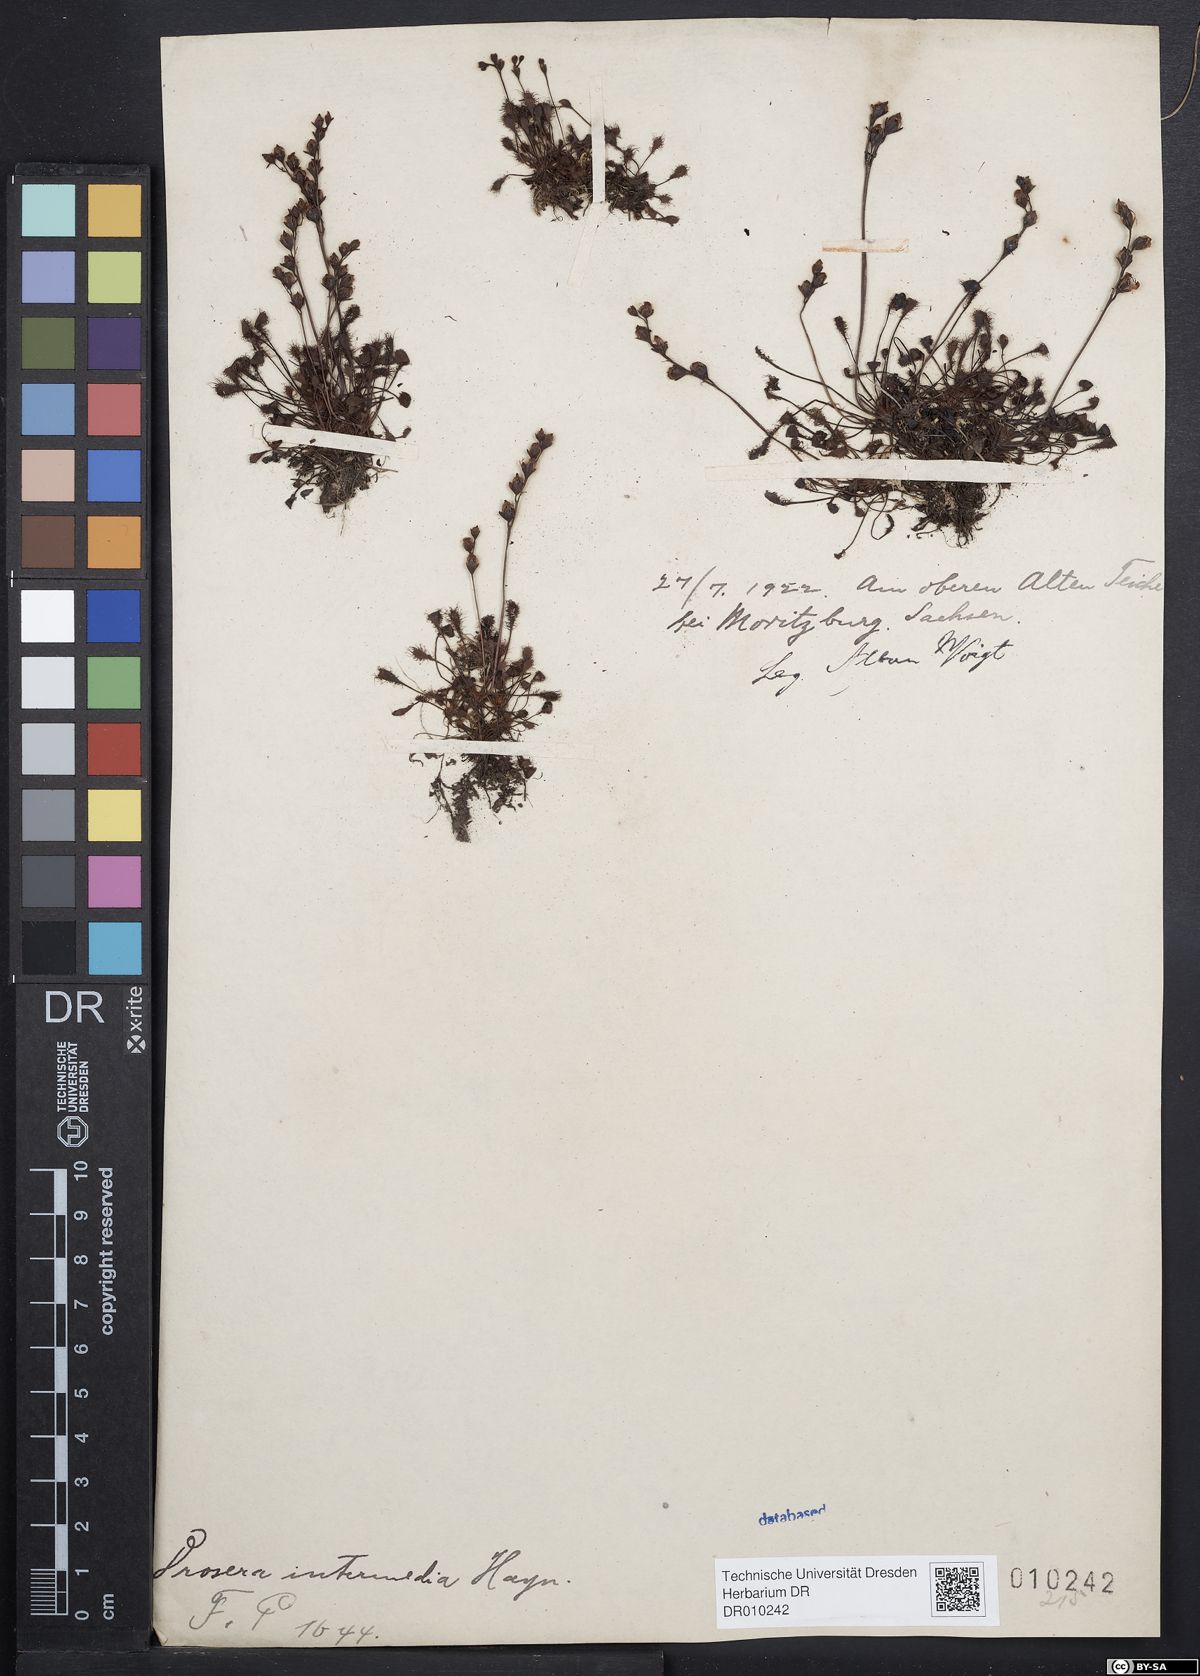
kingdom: Plantae
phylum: Tracheophyta
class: Magnoliopsida
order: Caryophyllales
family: Droseraceae
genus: Drosera
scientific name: Drosera intermedia
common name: Oblong-leaved sundew
